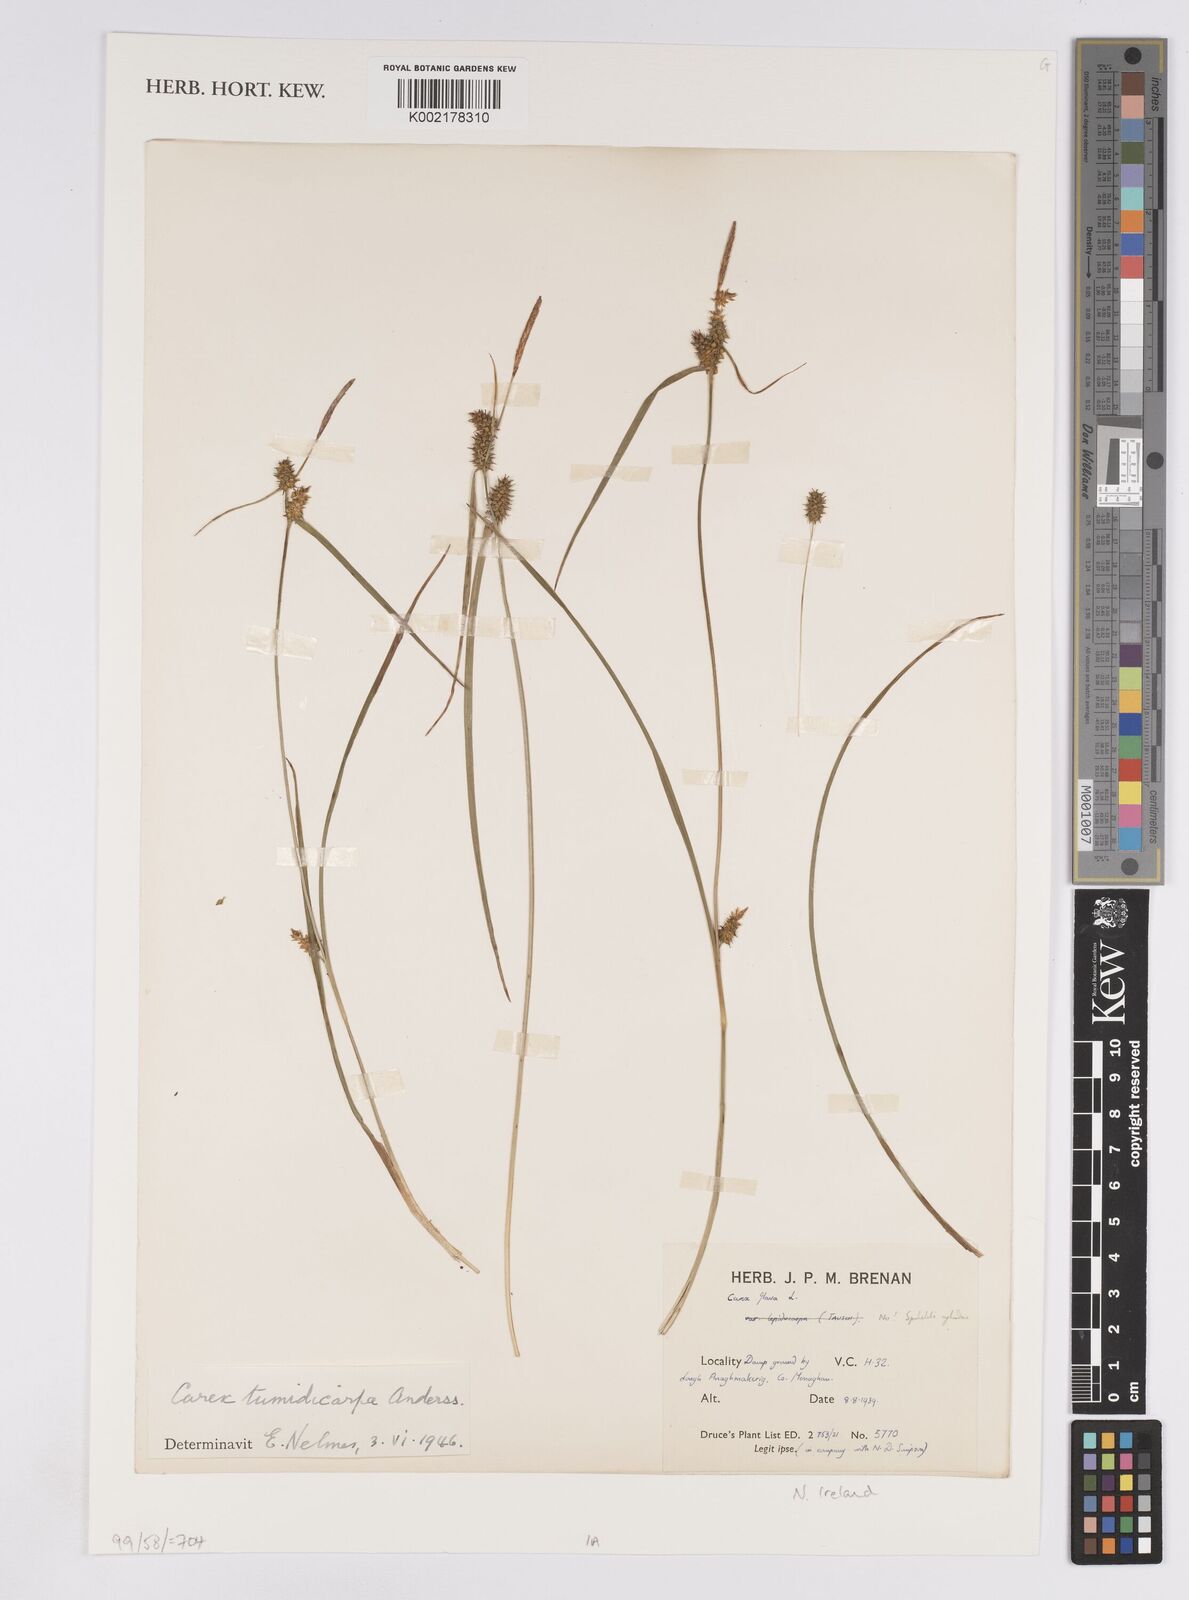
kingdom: Plantae
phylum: Tracheophyta
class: Liliopsida
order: Poales
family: Cyperaceae
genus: Carex
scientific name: Carex demissa
